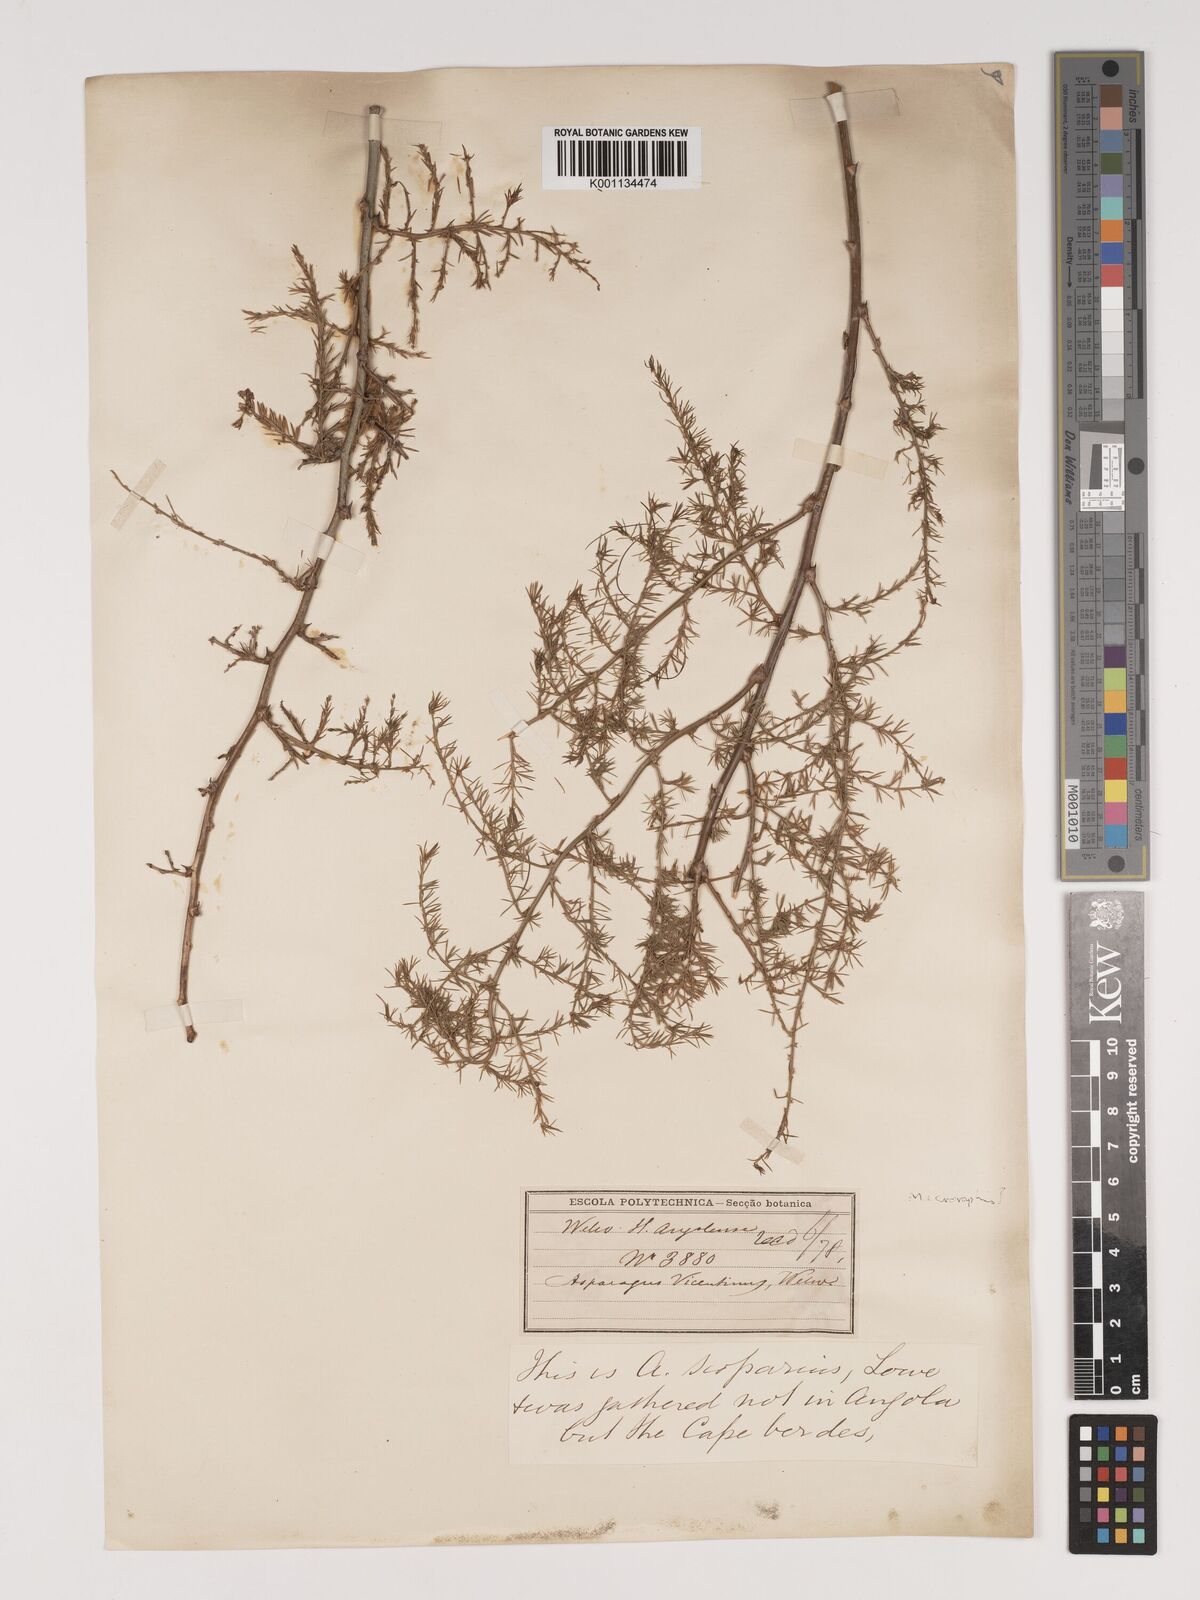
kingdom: Plantae
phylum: Tracheophyta
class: Liliopsida
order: Asparagales
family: Asparagaceae
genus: Asparagus
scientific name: Asparagus scoparius
